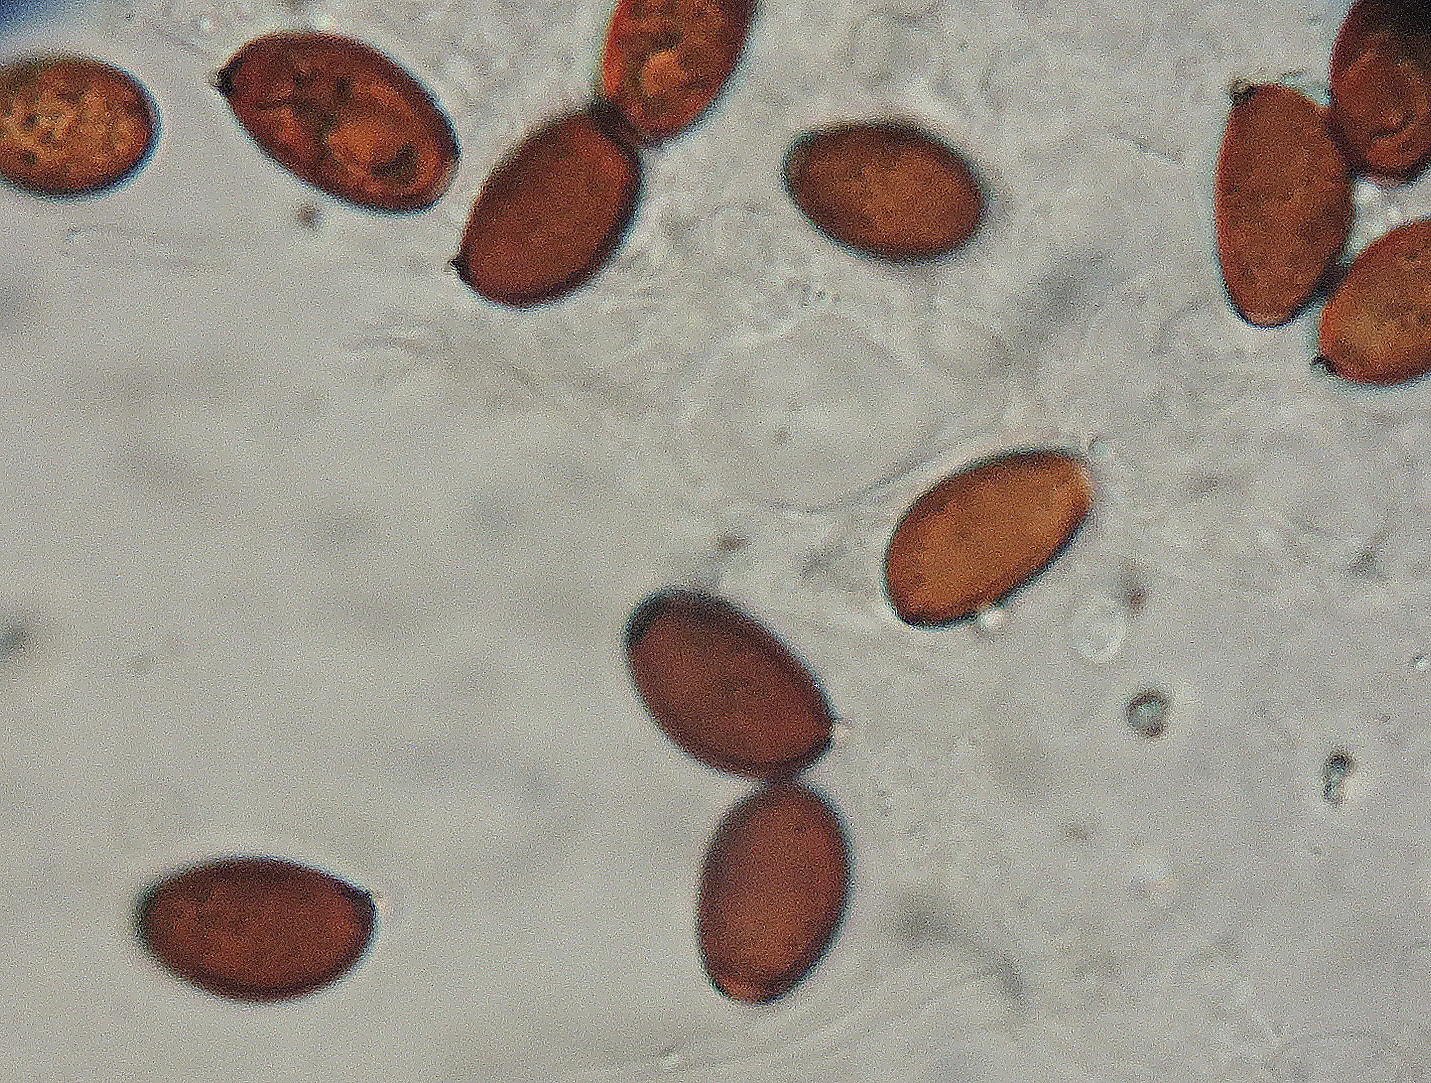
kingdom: Fungi
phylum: Basidiomycota
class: Agaricomycetes
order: Agaricales
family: Psathyrellaceae
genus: Tulosesus
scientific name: Tulosesus heterothrix
